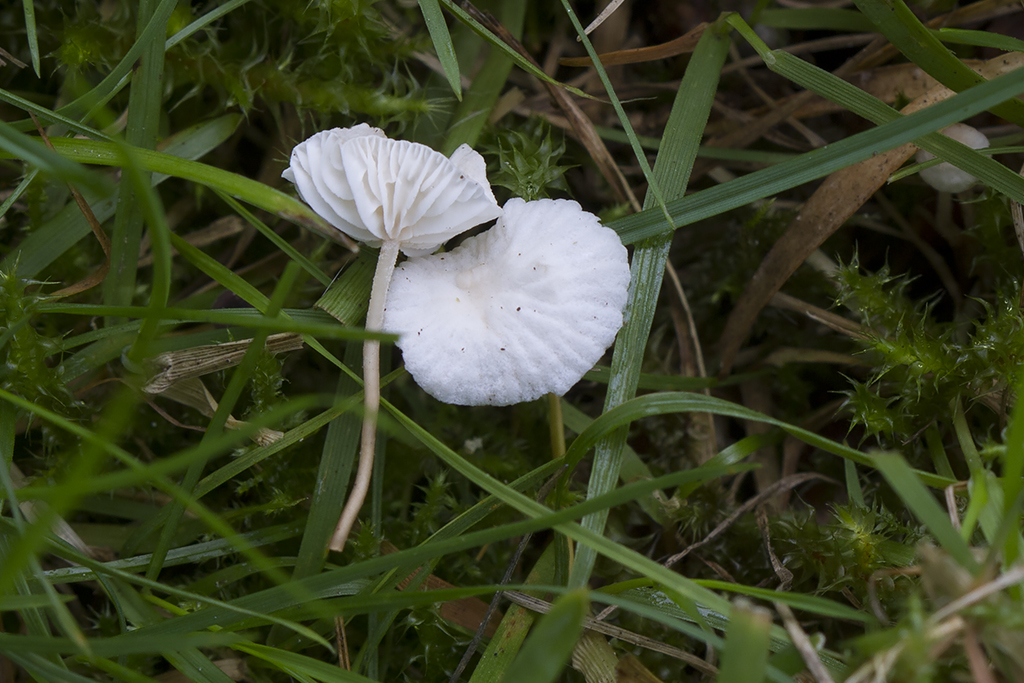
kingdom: Fungi
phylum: Basidiomycota
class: Agaricomycetes
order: Agaricales
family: Omphalotaceae
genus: Collybiopsis
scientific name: Collybiopsis vaillantii
